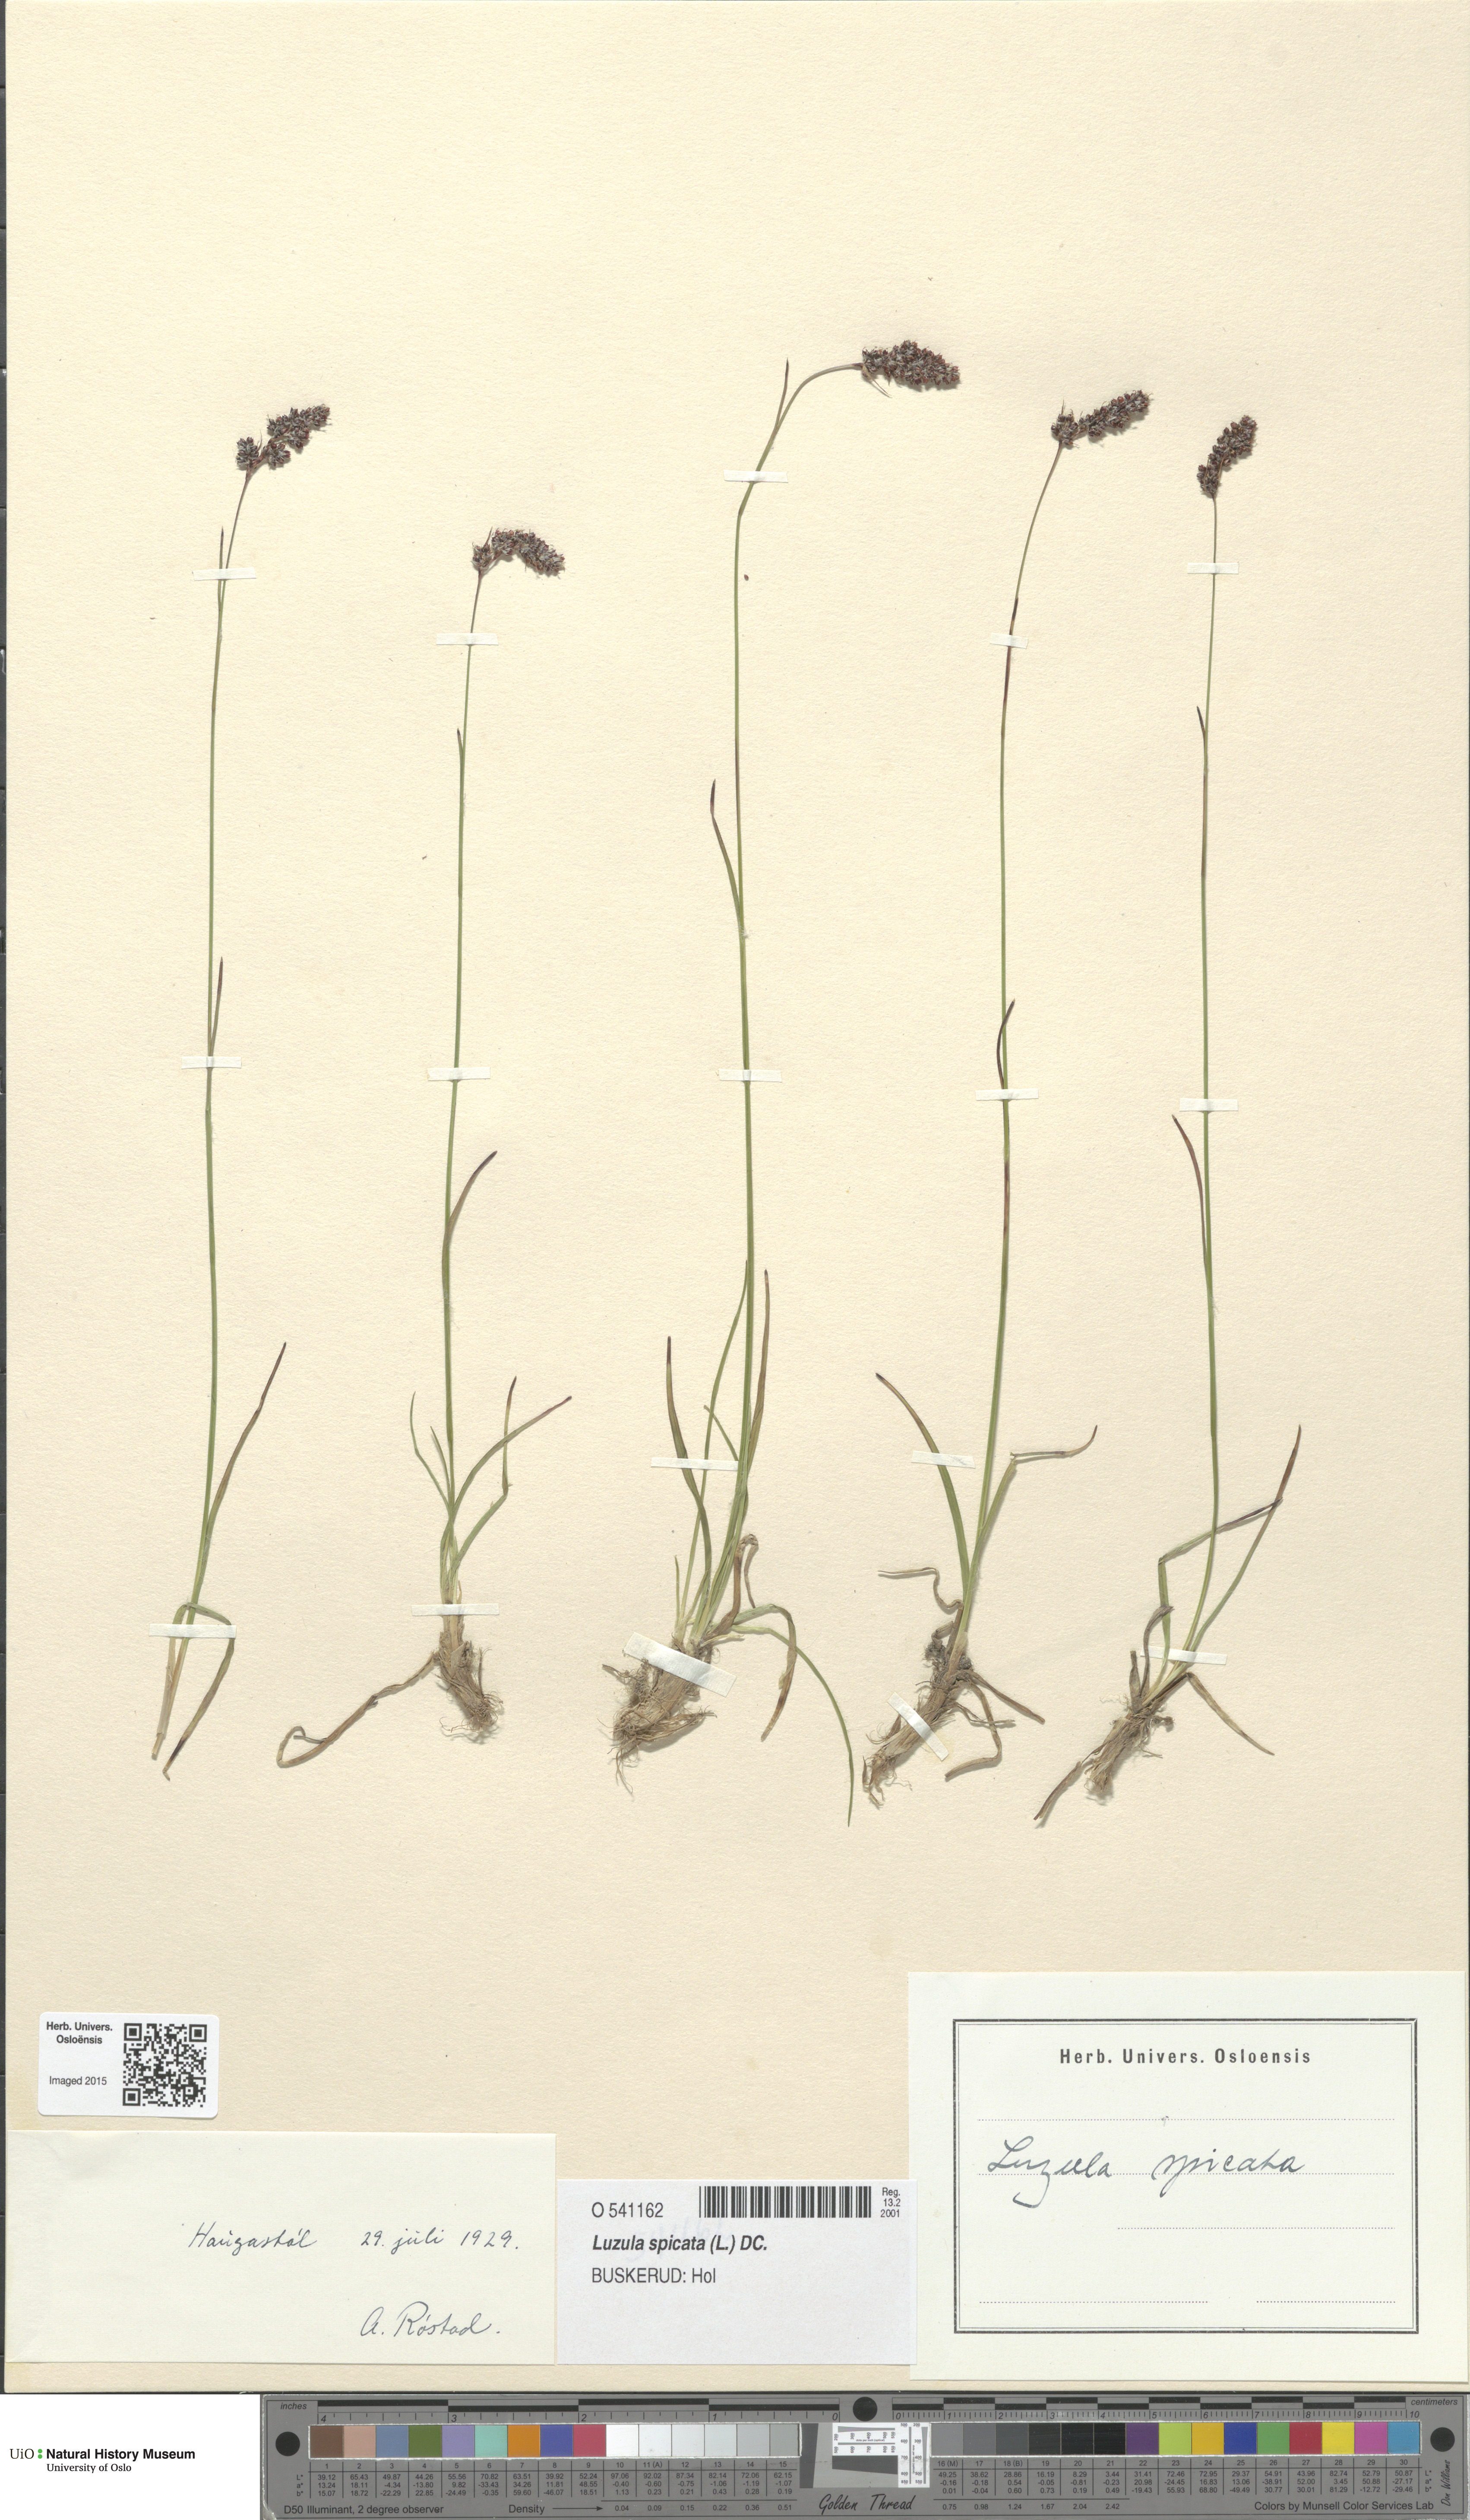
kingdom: Plantae
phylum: Tracheophyta
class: Liliopsida
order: Poales
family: Juncaceae
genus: Luzula
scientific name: Luzula spicata
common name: Spiked wood-rush
